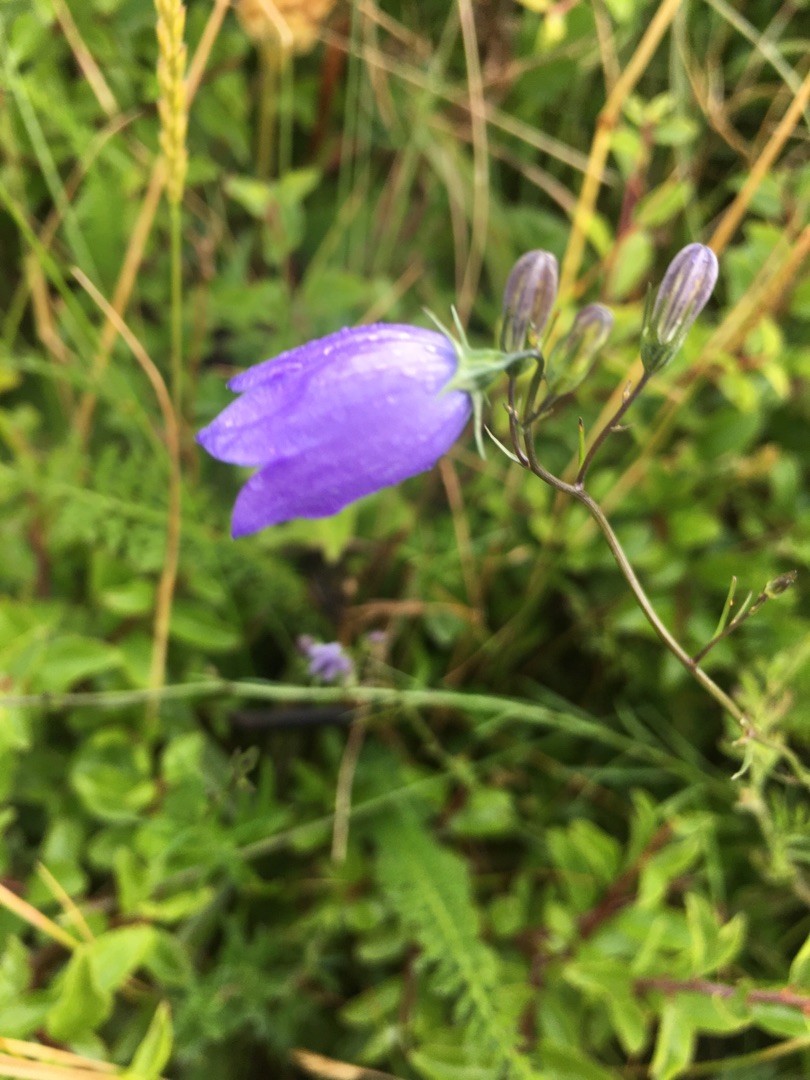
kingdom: Plantae
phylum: Tracheophyta
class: Magnoliopsida
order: Asterales
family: Campanulaceae
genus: Campanula
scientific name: Campanula rotundifolia
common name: Liden klokke
